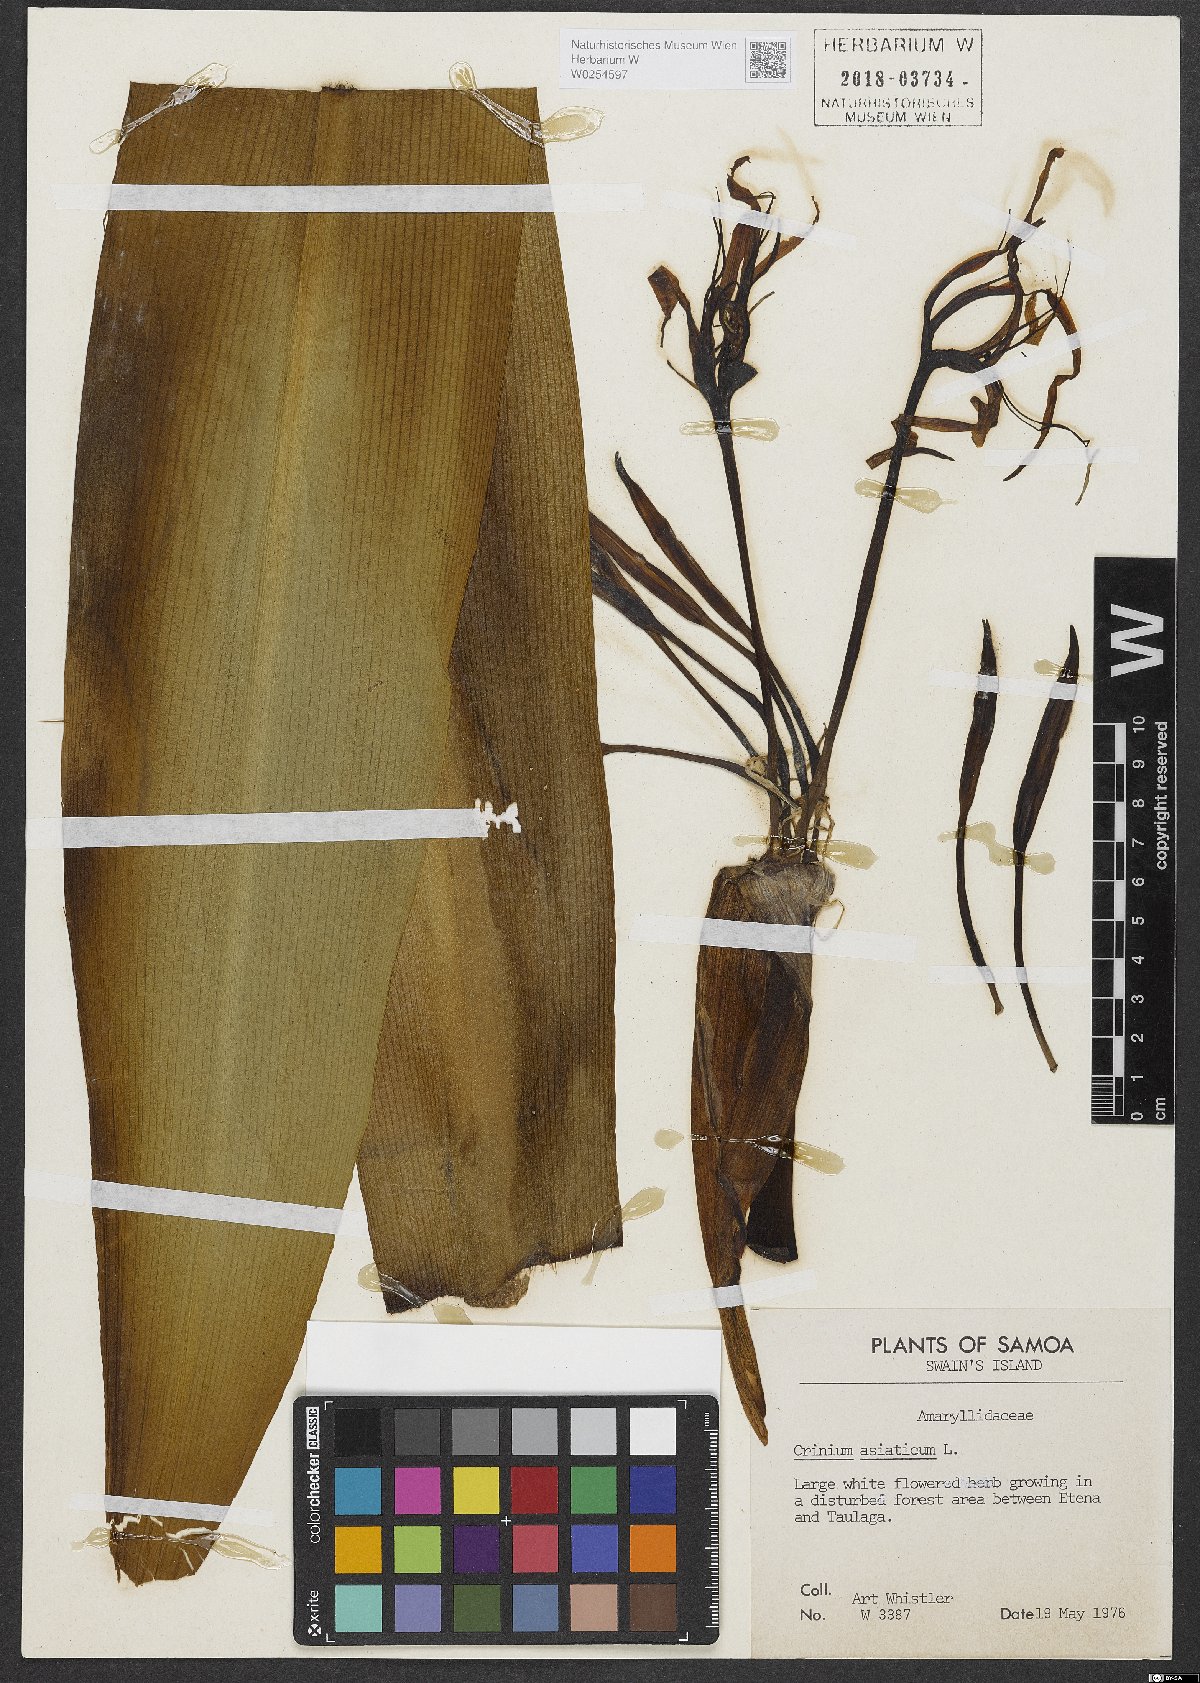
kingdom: Plantae
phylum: Tracheophyta
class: Liliopsida
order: Asparagales
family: Amaryllidaceae
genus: Crinum
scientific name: Crinum asiaticum
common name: Poisonbulb
